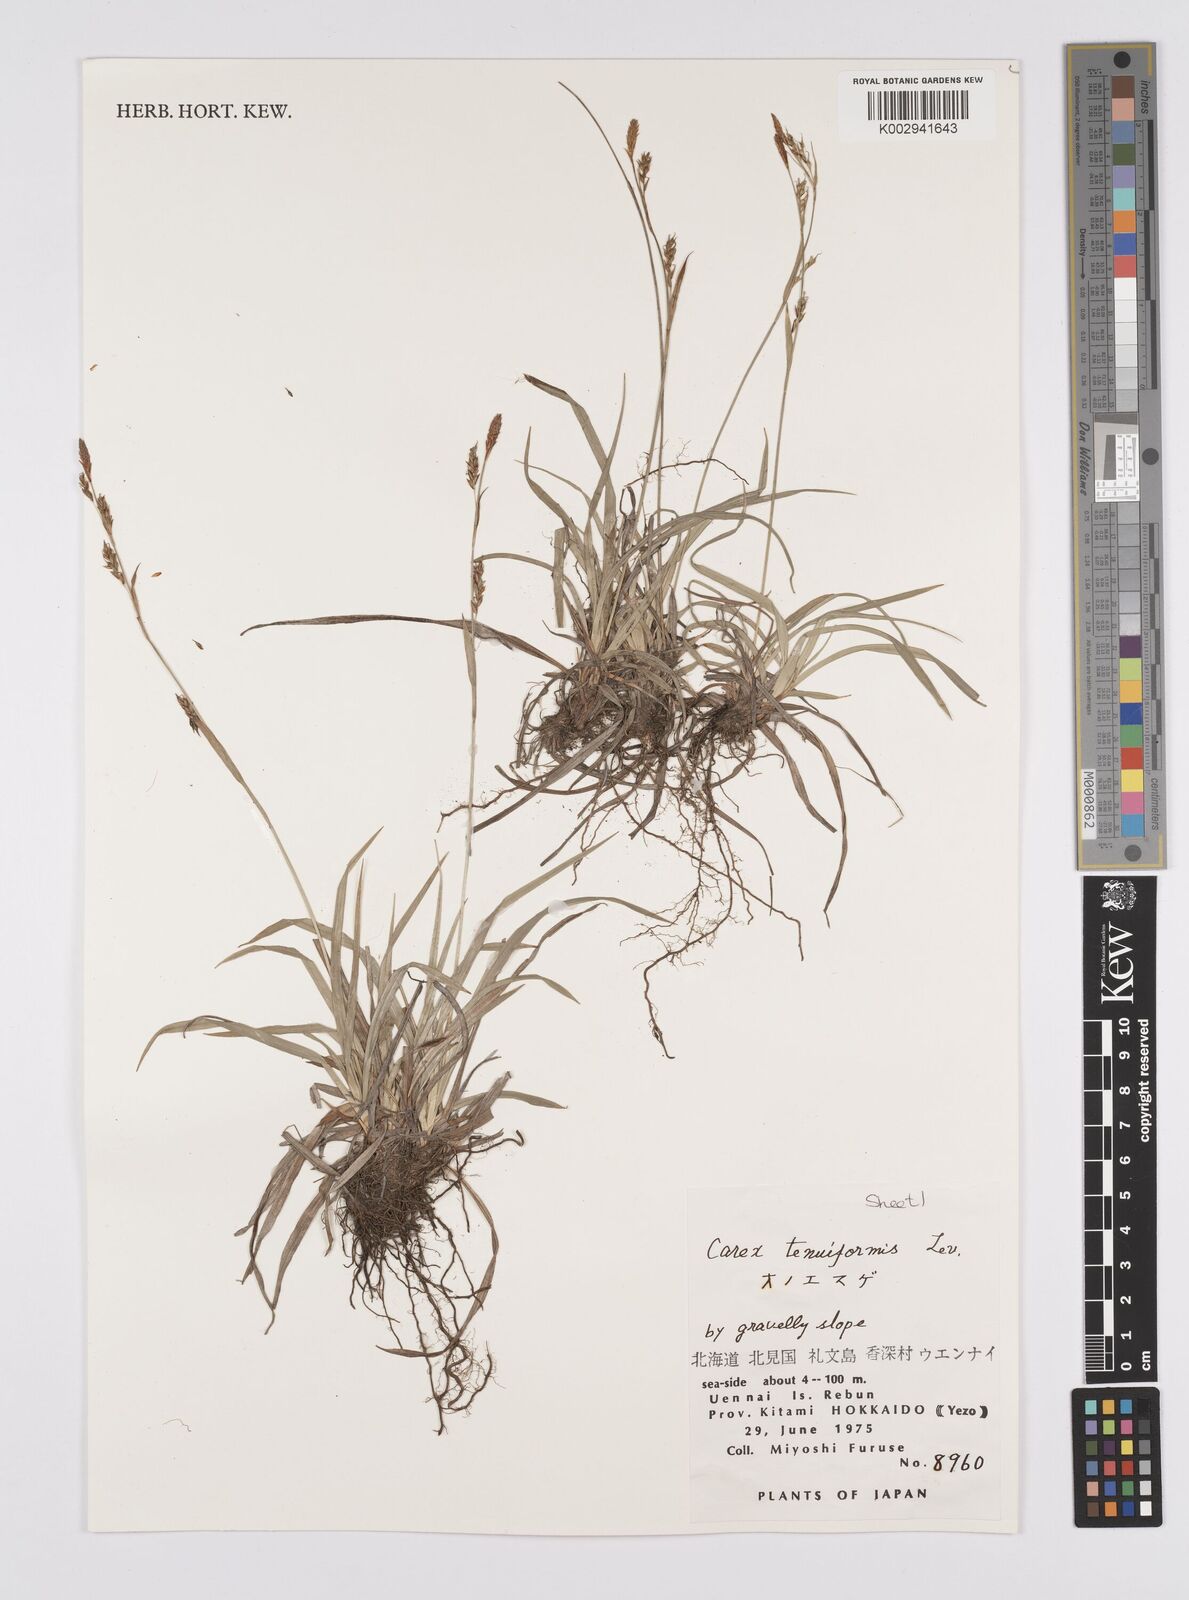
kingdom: Plantae
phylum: Tracheophyta
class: Liliopsida
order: Poales
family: Cyperaceae
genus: Carex
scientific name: Carex tenuiformis
